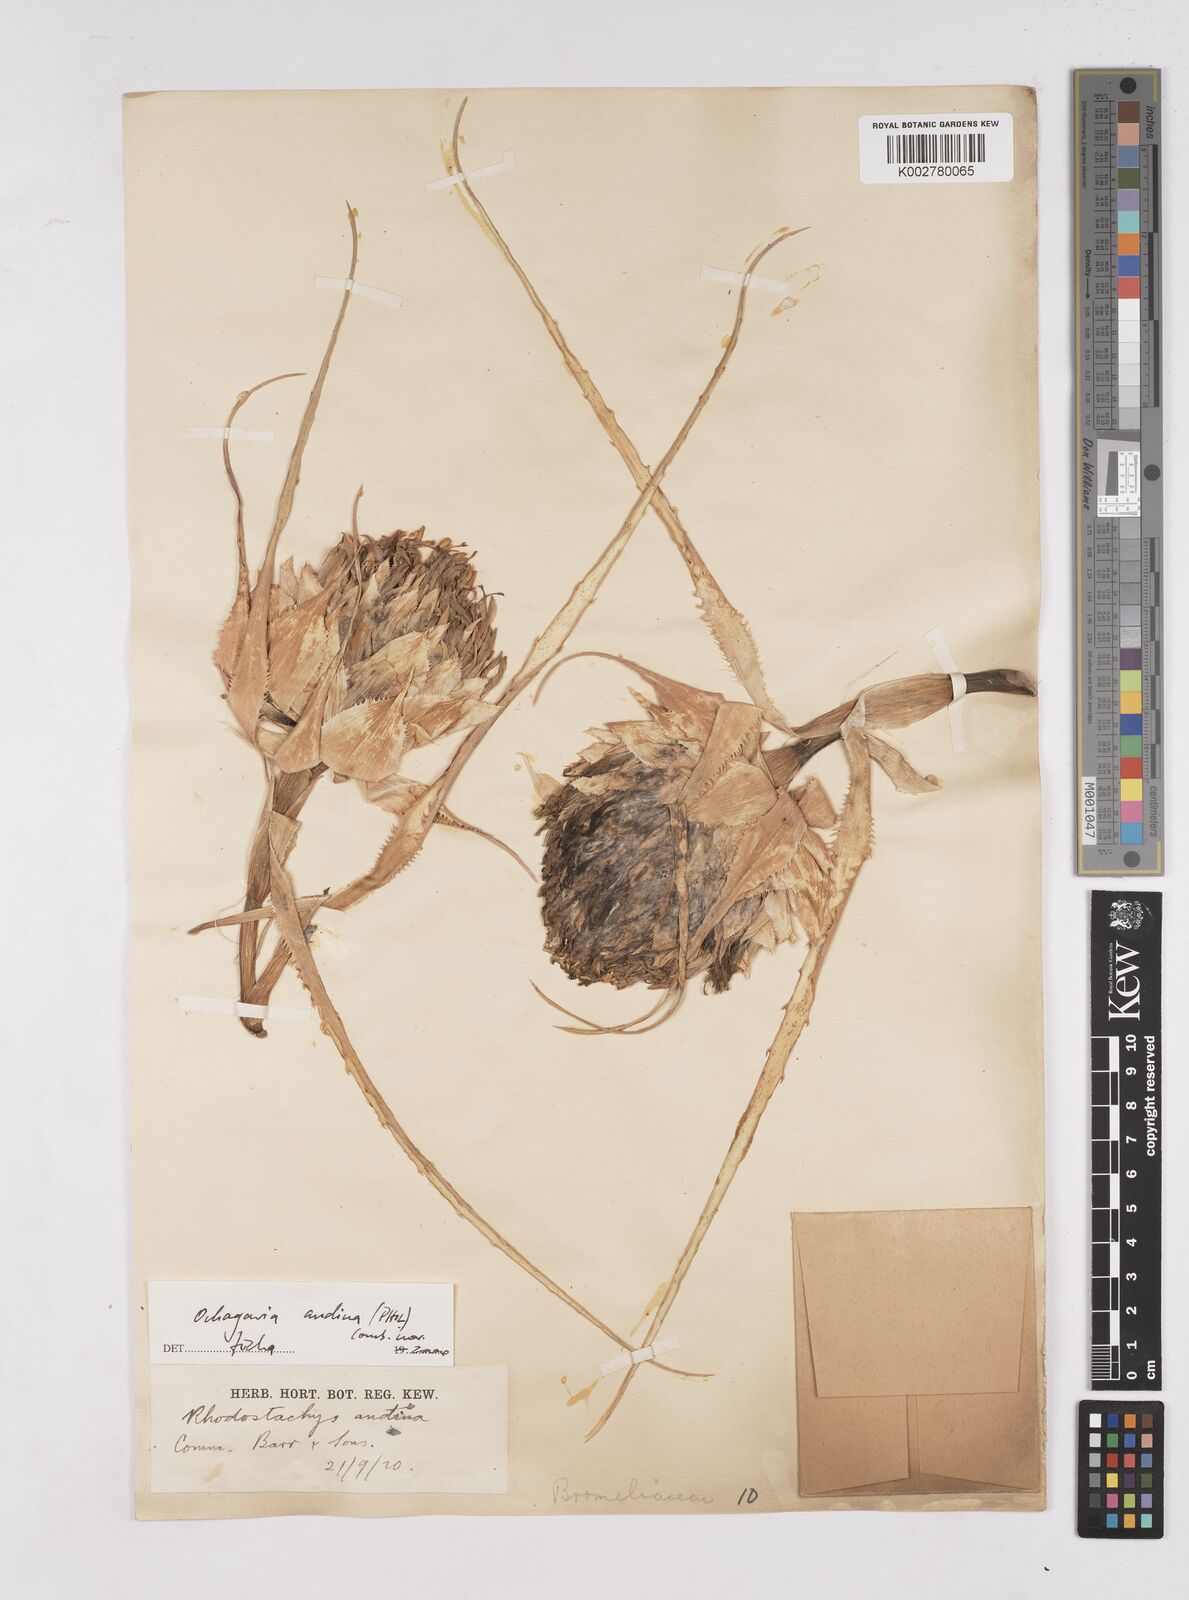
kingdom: Plantae
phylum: Tracheophyta
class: Liliopsida
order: Poales
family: Bromeliaceae
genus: Ochagavia
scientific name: Ochagavia carnea
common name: Tresco rhodostachys
